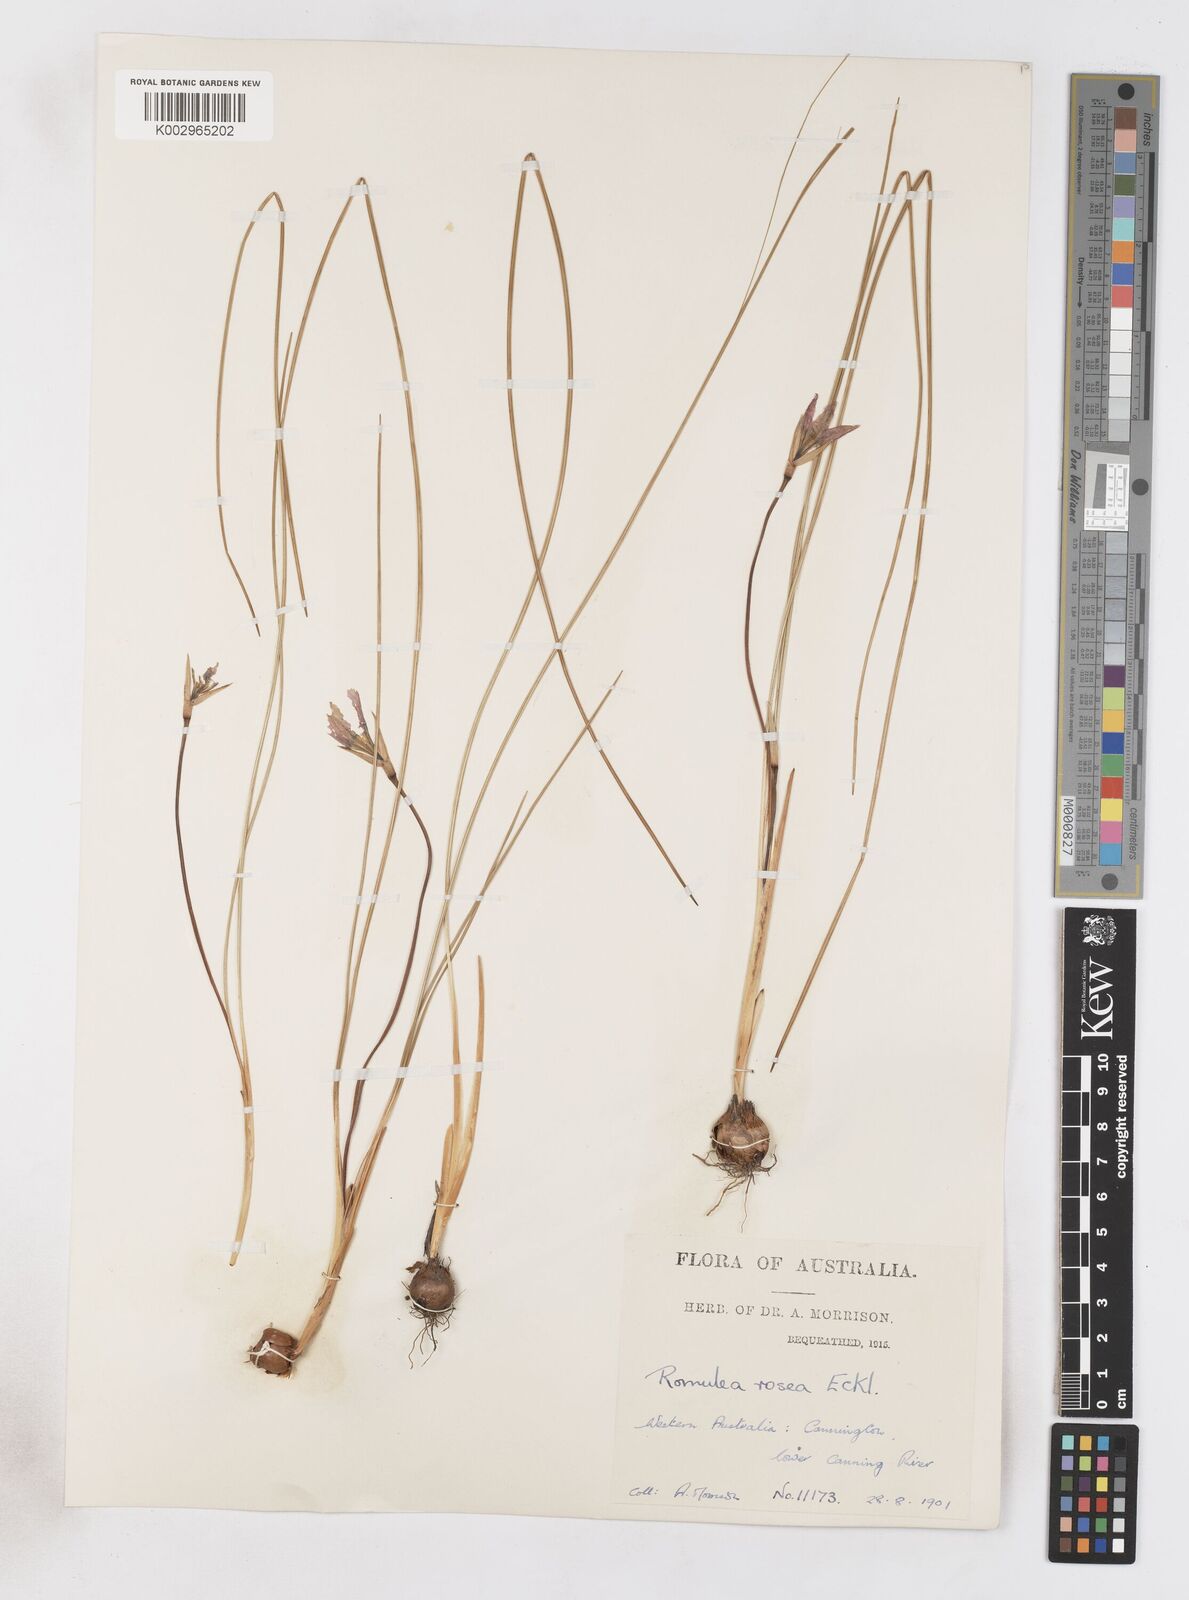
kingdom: Plantae
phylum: Tracheophyta
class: Liliopsida
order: Asparagales
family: Iridaceae
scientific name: Iridaceae
